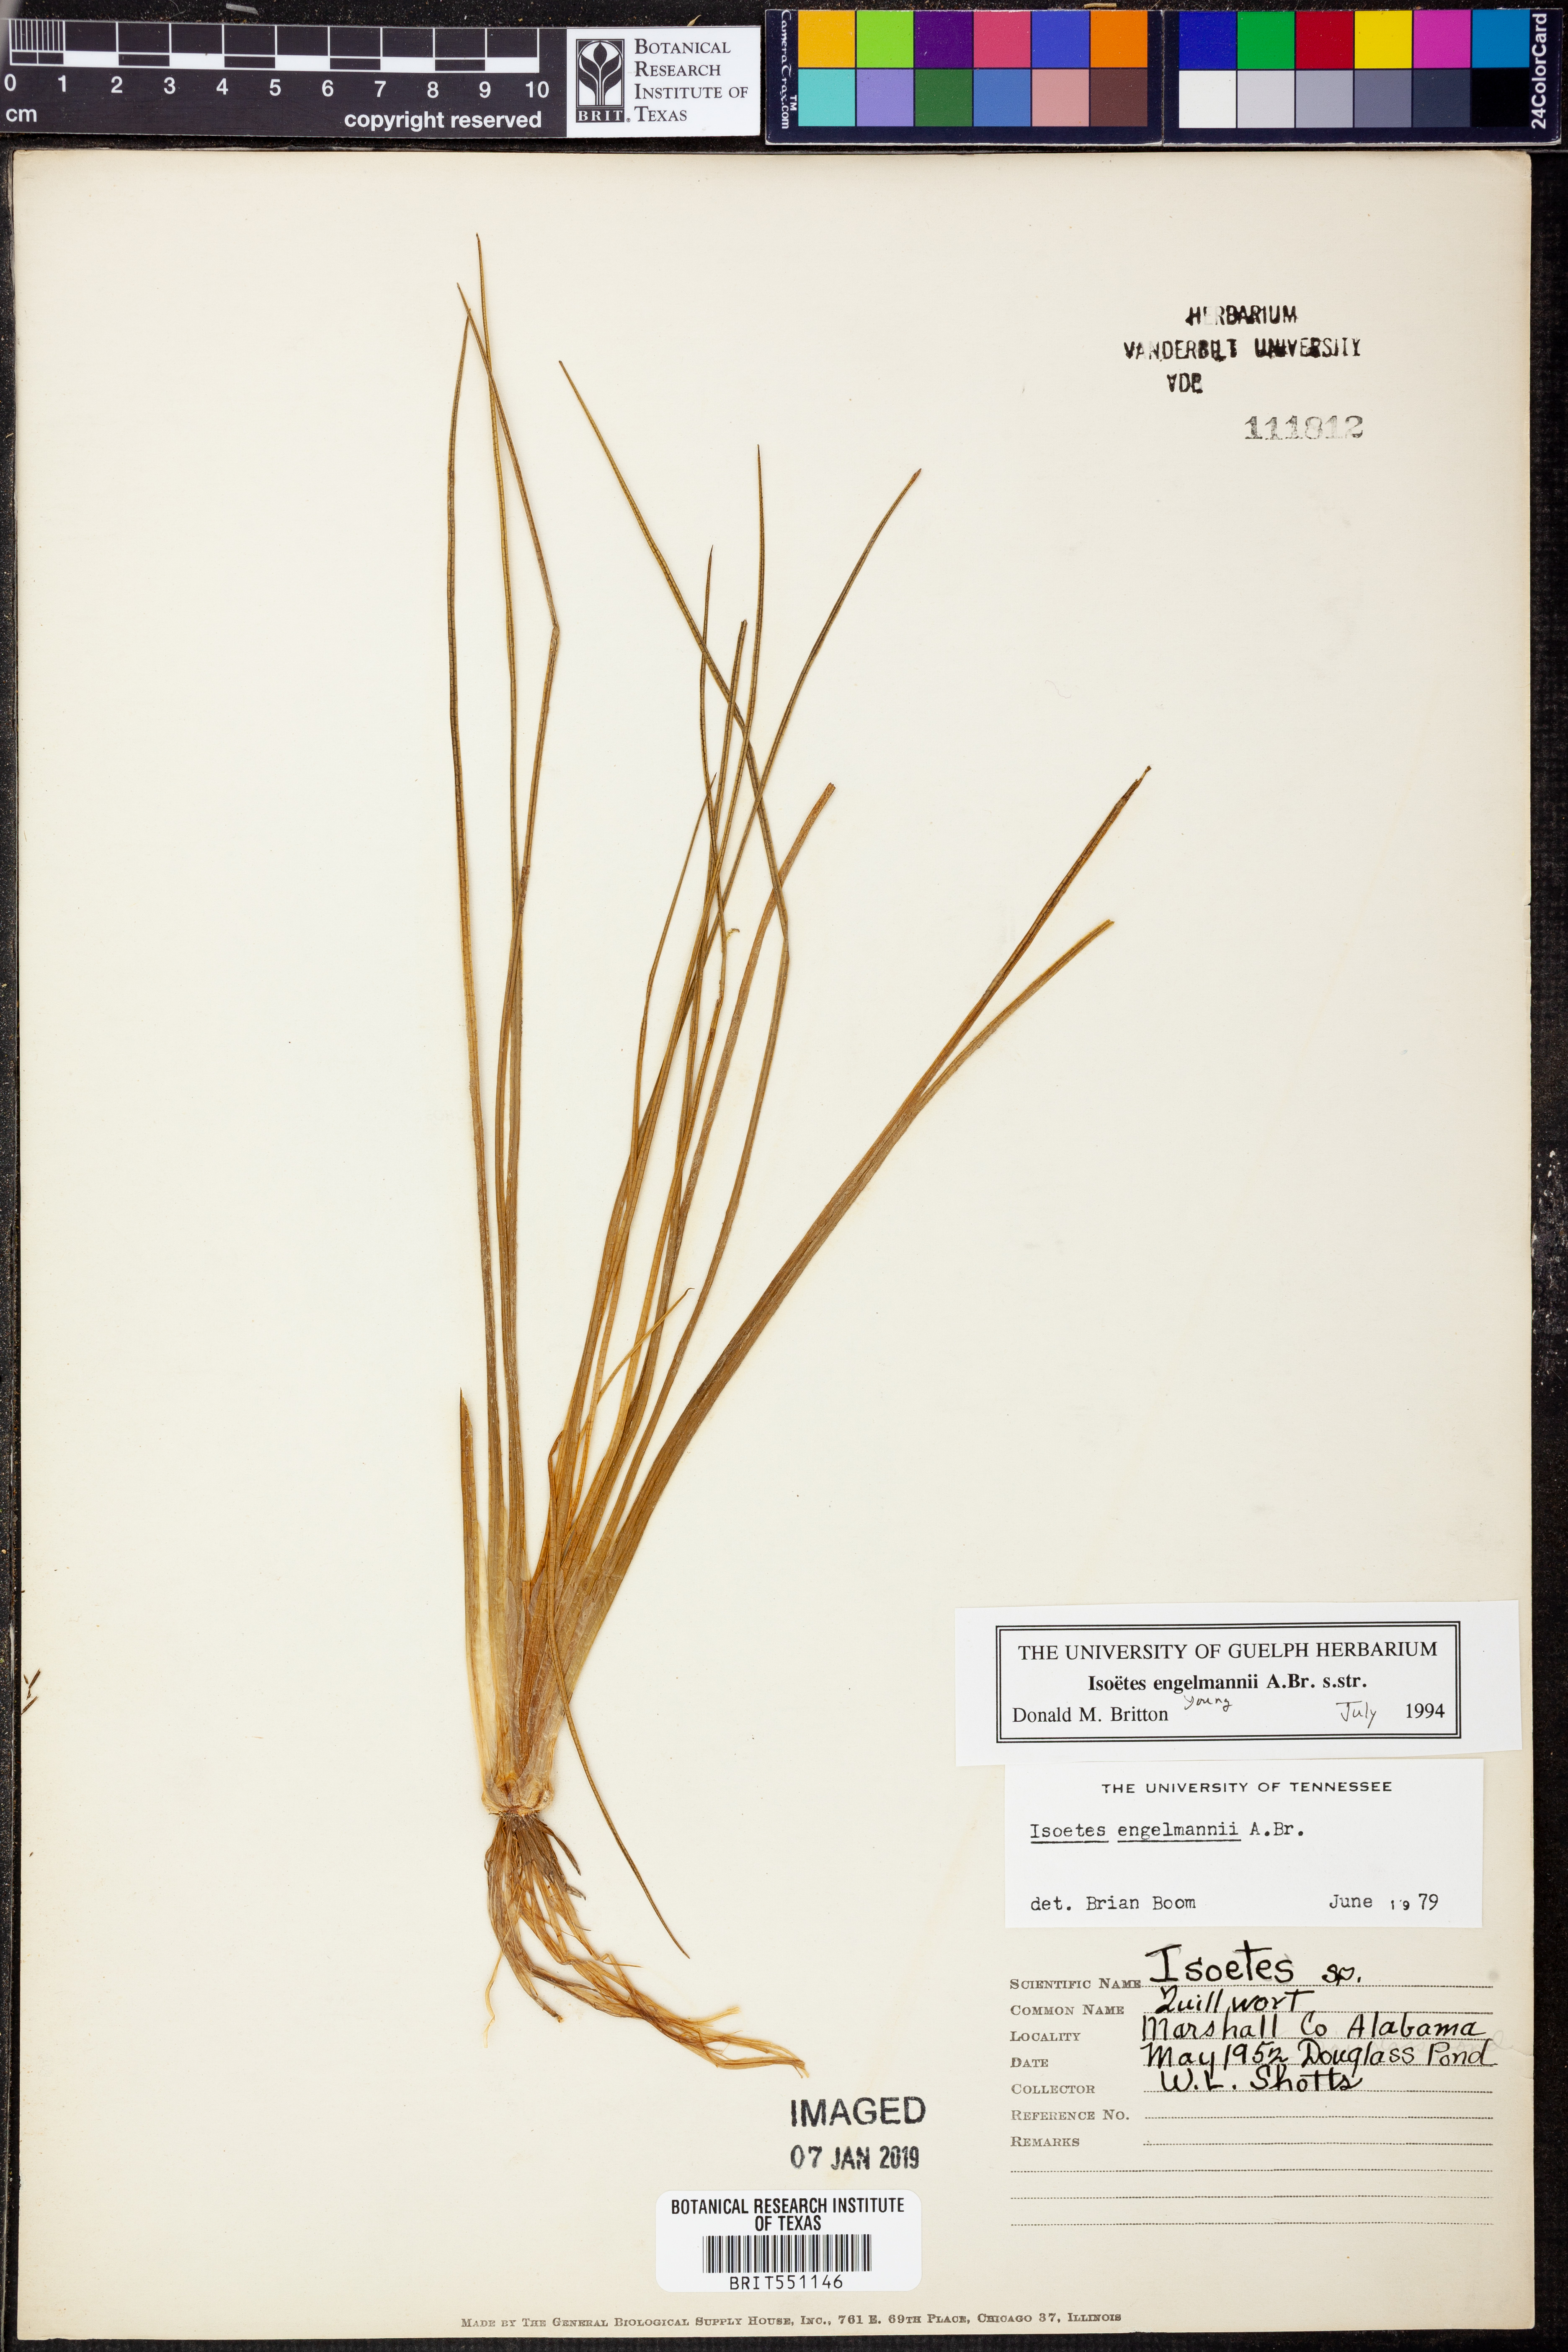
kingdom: Plantae
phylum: Tracheophyta
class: Lycopodiopsida
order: Isoetales
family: Isoetaceae
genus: Isoetes
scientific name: Isoetes engelmannii
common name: Engelmann's quillwort
